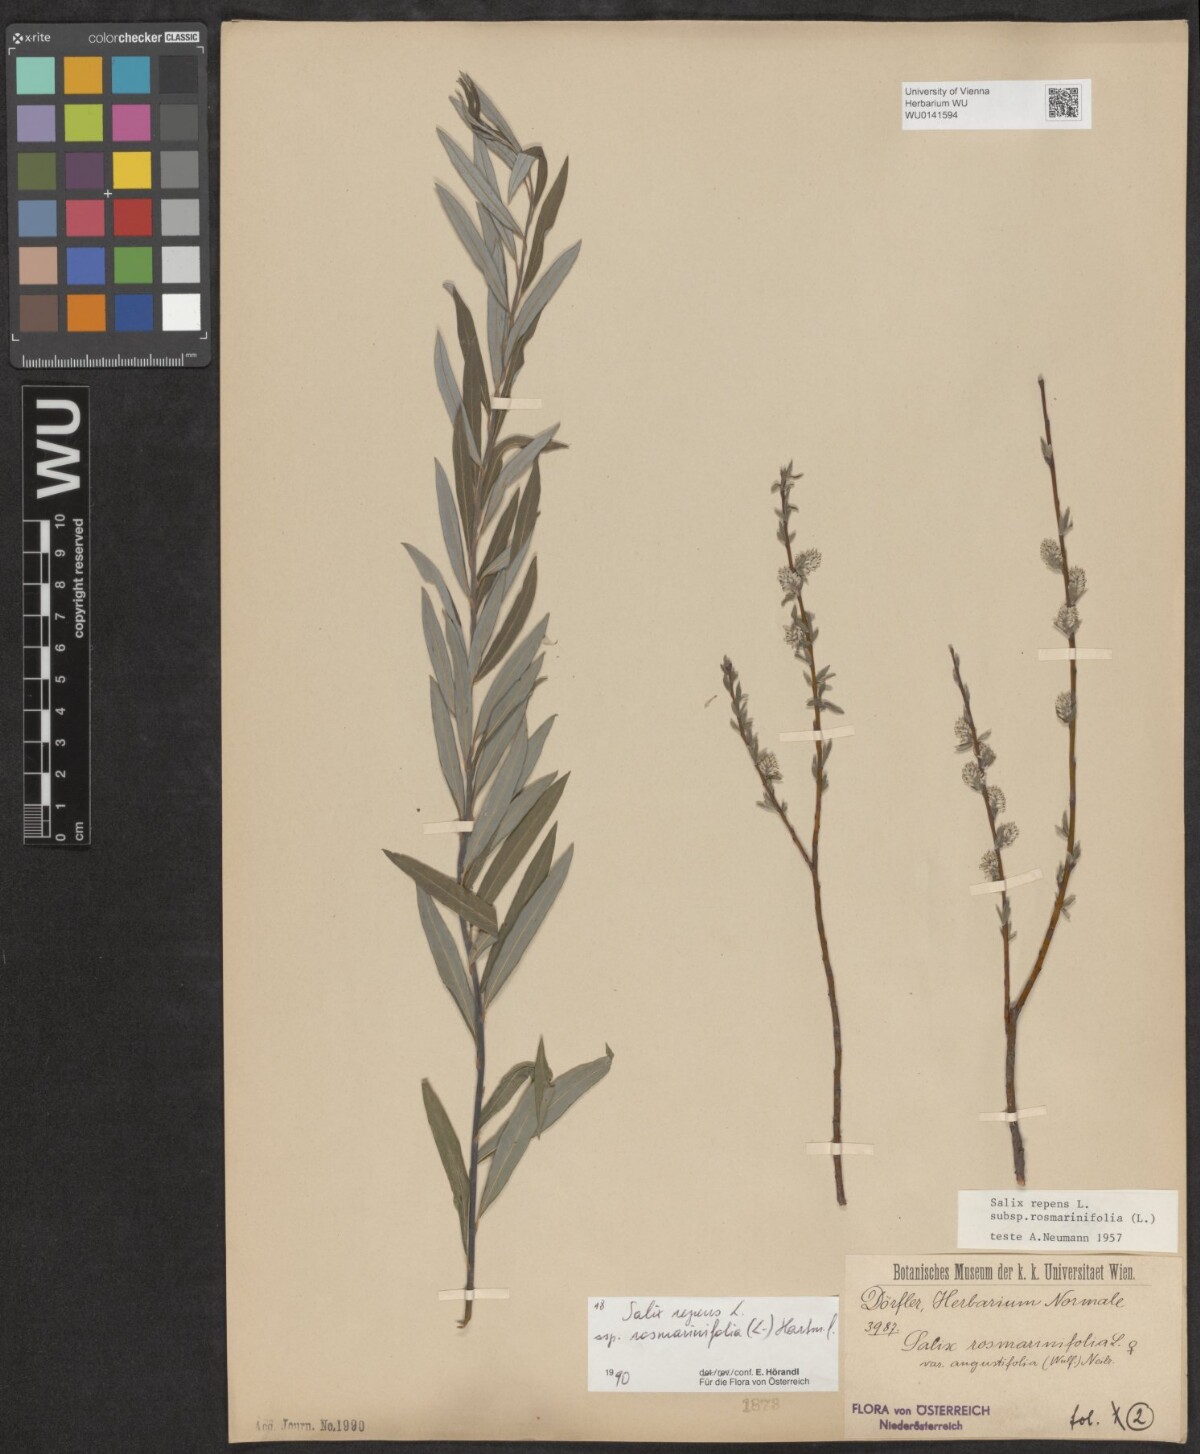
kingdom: Plantae
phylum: Tracheophyta
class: Magnoliopsida
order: Malpighiales
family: Salicaceae
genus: Salix
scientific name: Salix repens
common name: Creeping willow
